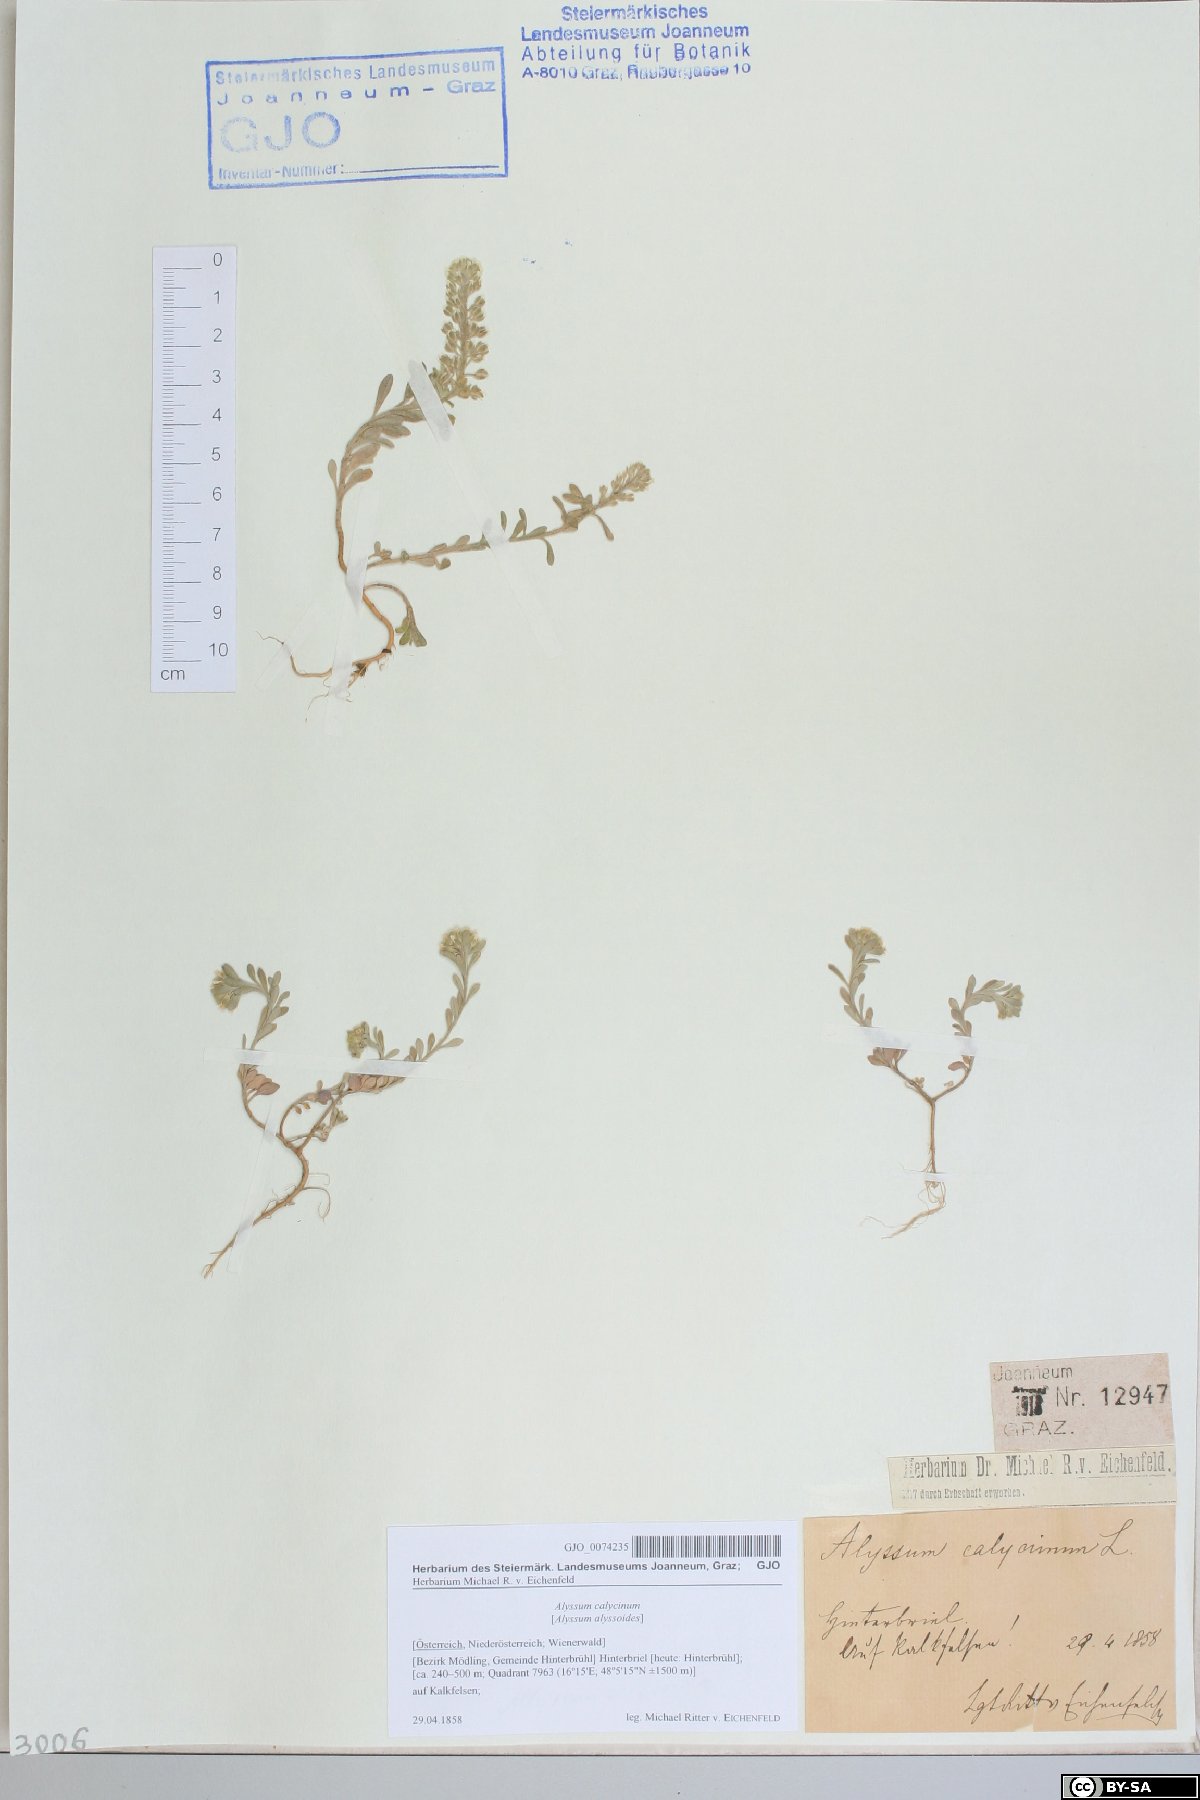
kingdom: Plantae
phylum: Tracheophyta
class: Magnoliopsida
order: Brassicales
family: Brassicaceae
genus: Alyssum
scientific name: Alyssum alyssoides
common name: Small alison
